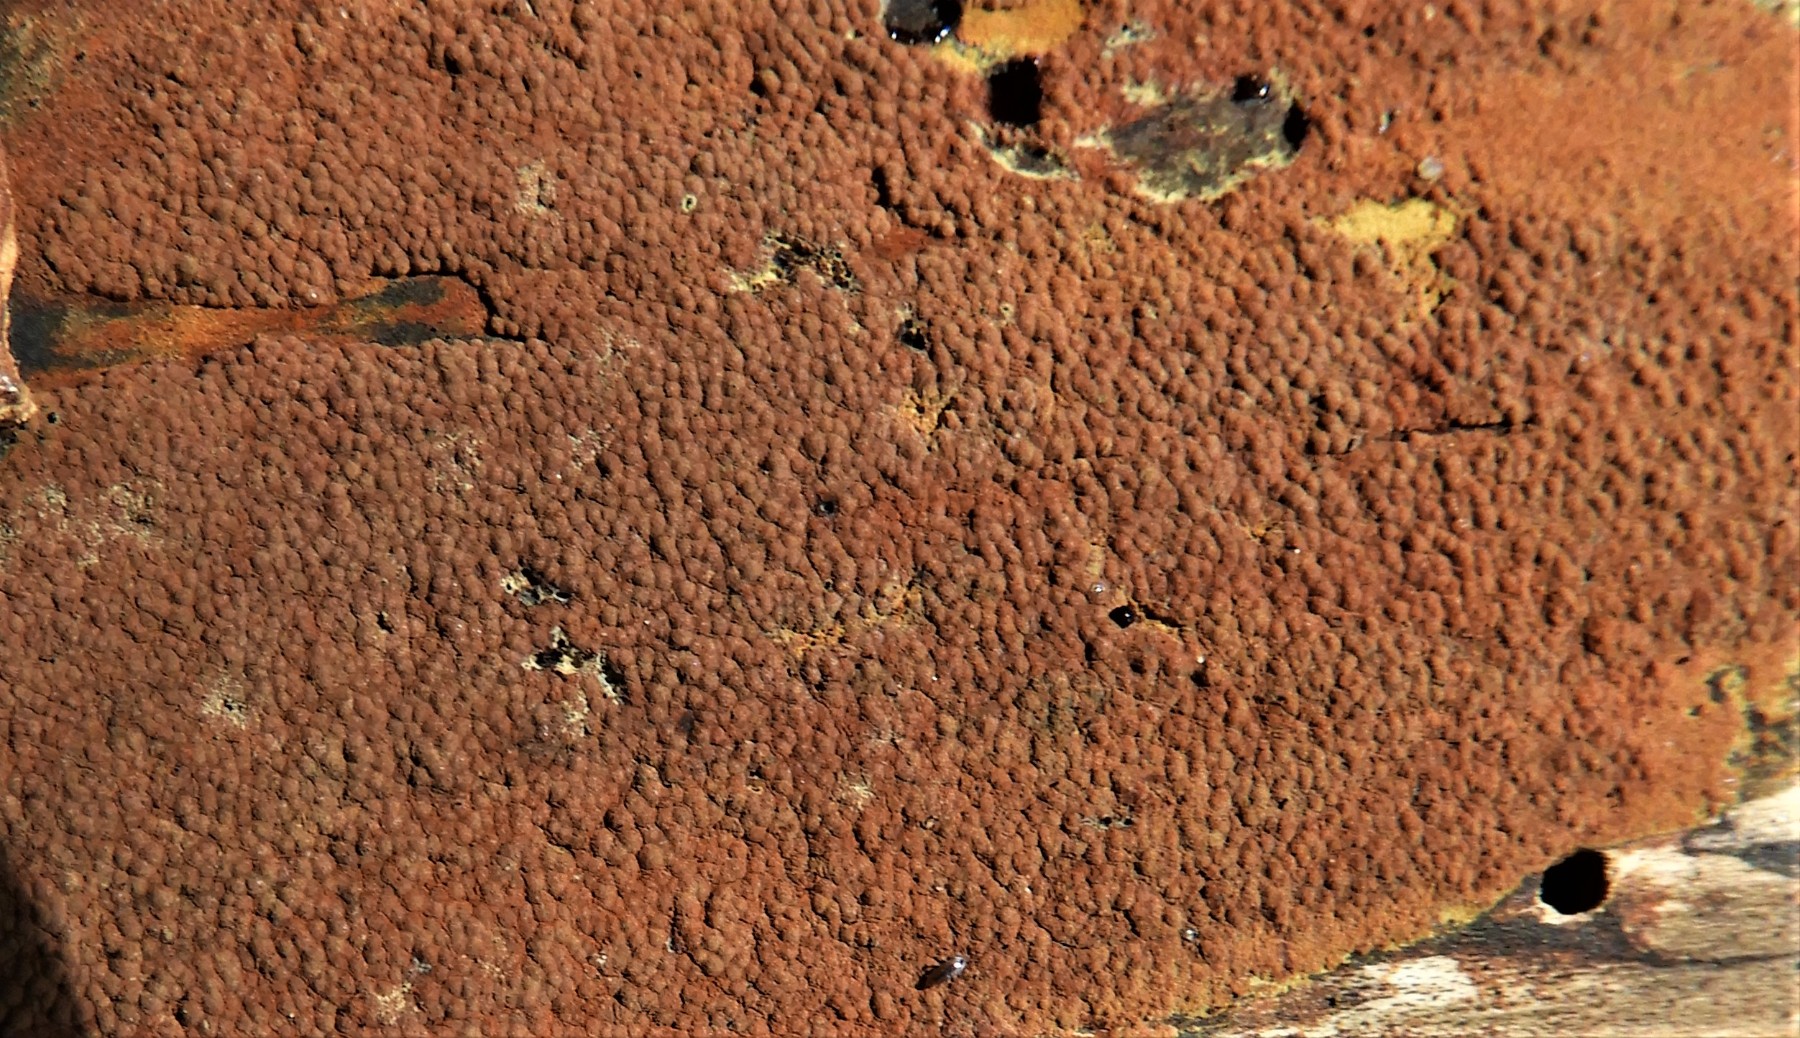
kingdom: Fungi
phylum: Ascomycota
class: Sordariomycetes
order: Xylariales
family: Hypoxylaceae
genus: Hypoxylon
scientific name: Hypoxylon rubiginosum
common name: rustfarvet kulbær
